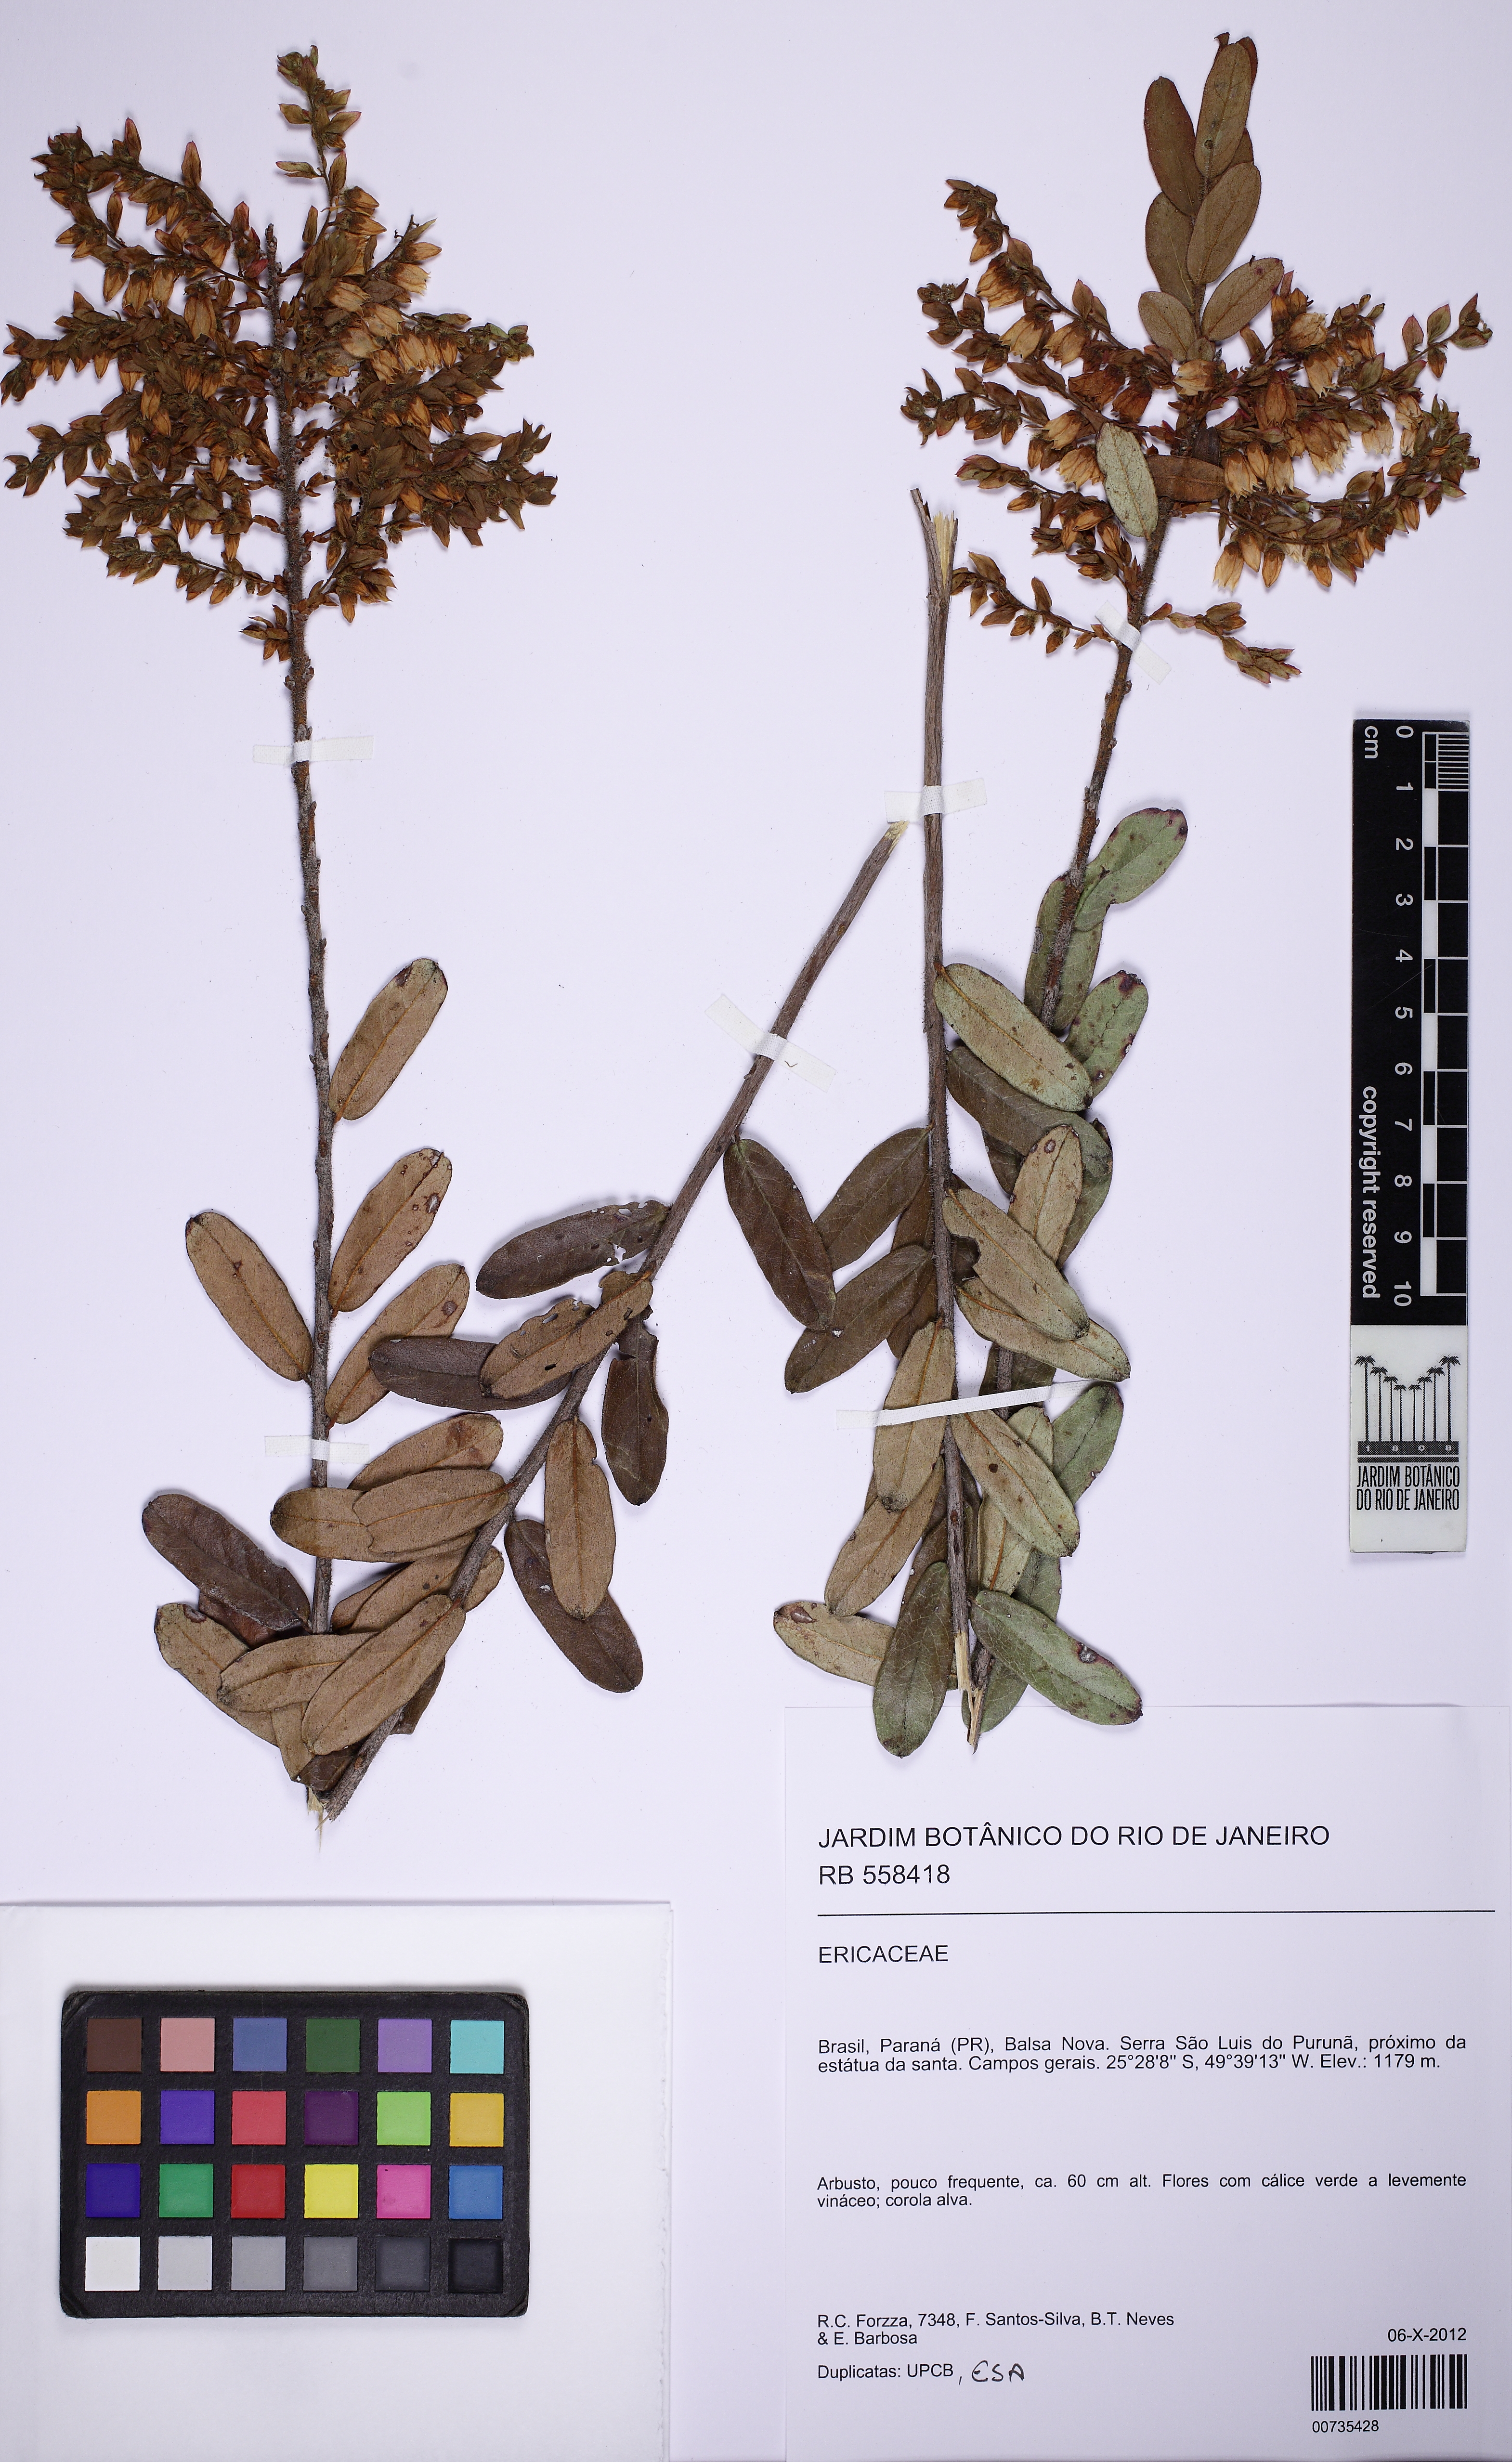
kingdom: Plantae
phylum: Tracheophyta
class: Magnoliopsida
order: Ericales
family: Ericaceae
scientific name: Ericaceae
